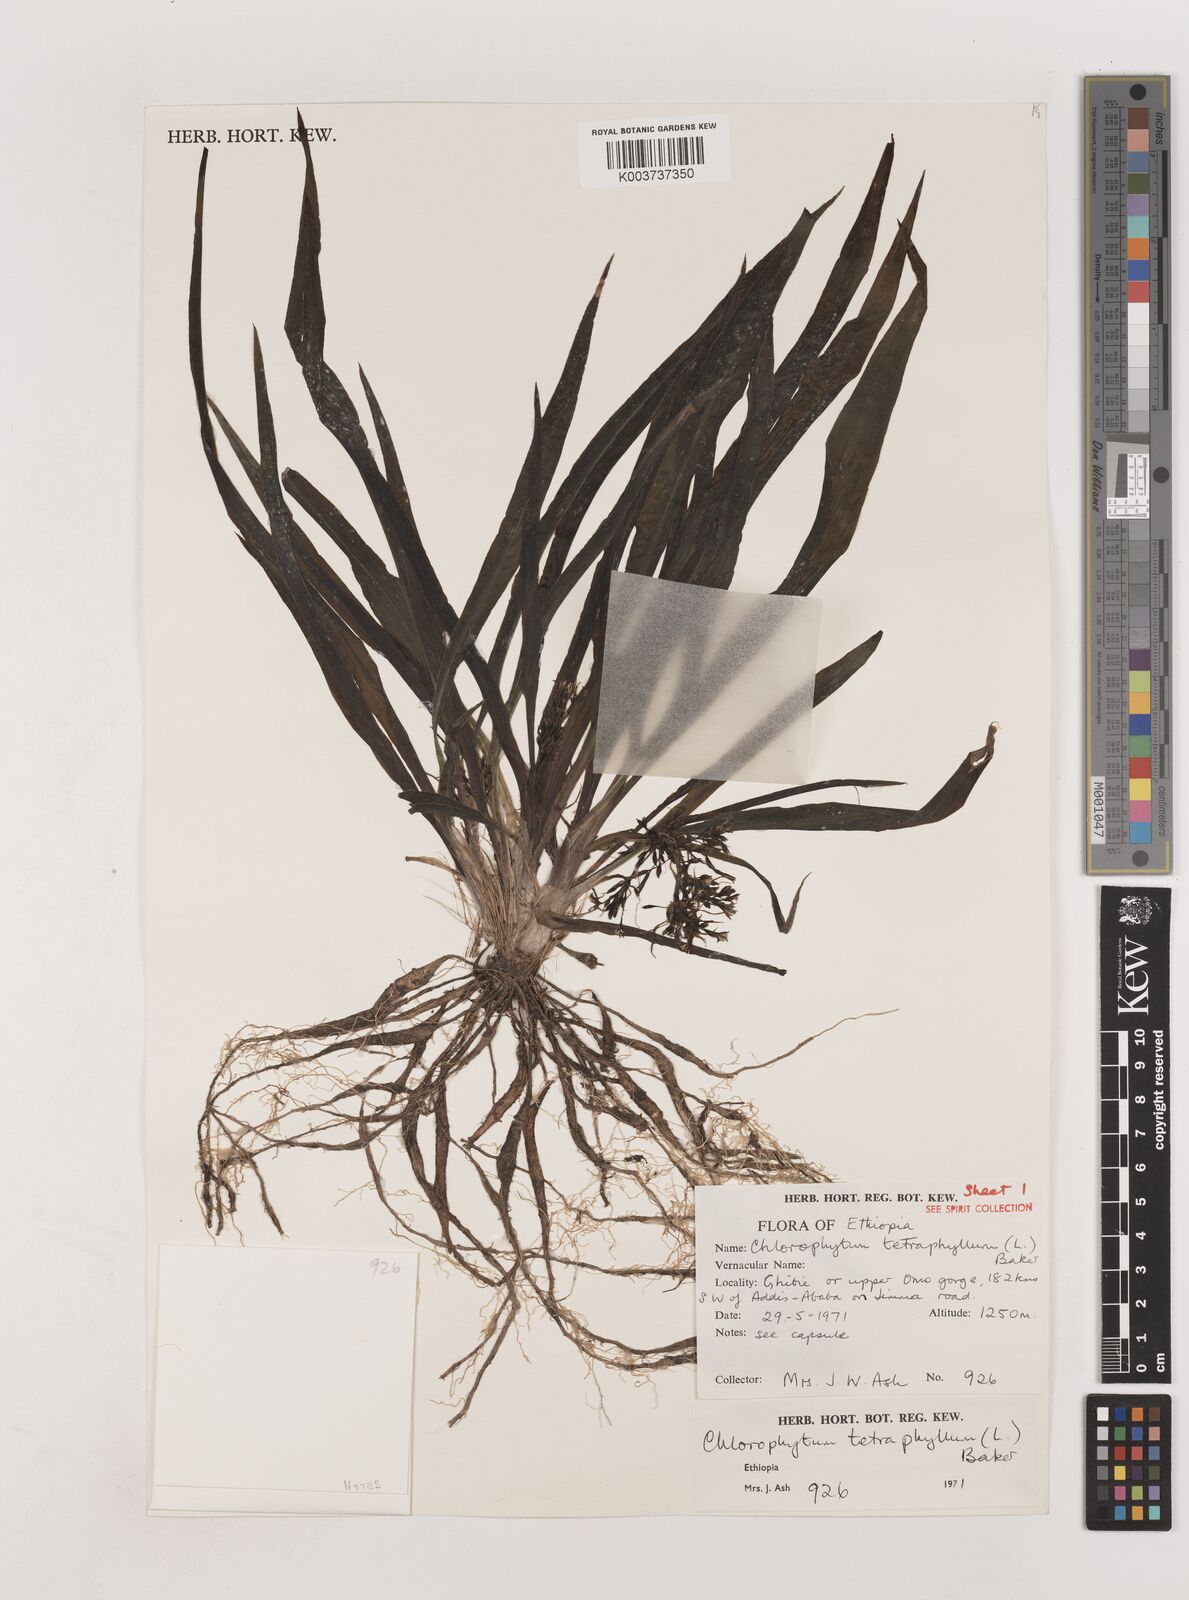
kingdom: Plantae
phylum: Tracheophyta
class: Liliopsida
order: Asparagales
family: Asparagaceae
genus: Chlorophytum
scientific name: Chlorophytum tetraphyllum
